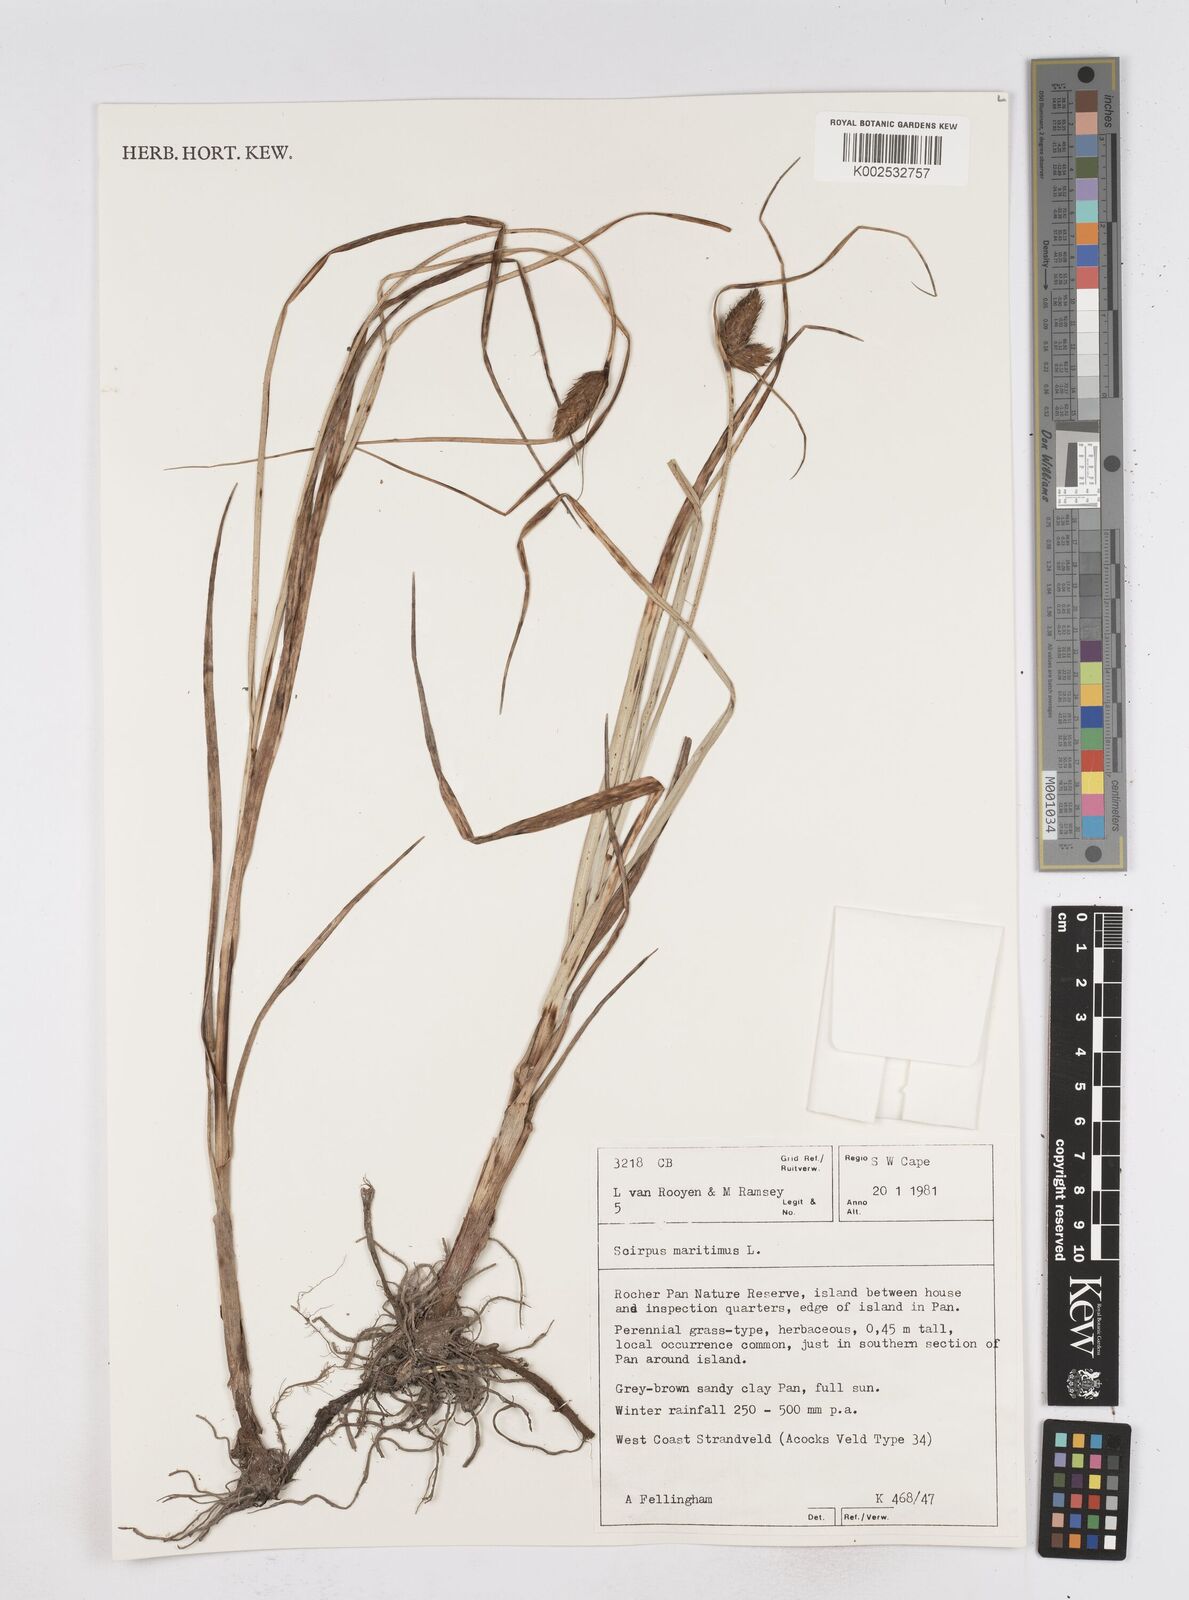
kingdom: Plantae
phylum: Tracheophyta
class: Liliopsida
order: Poales
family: Cyperaceae
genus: Bolboschoenus
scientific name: Bolboschoenus maritimus
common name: Sea club-rush
